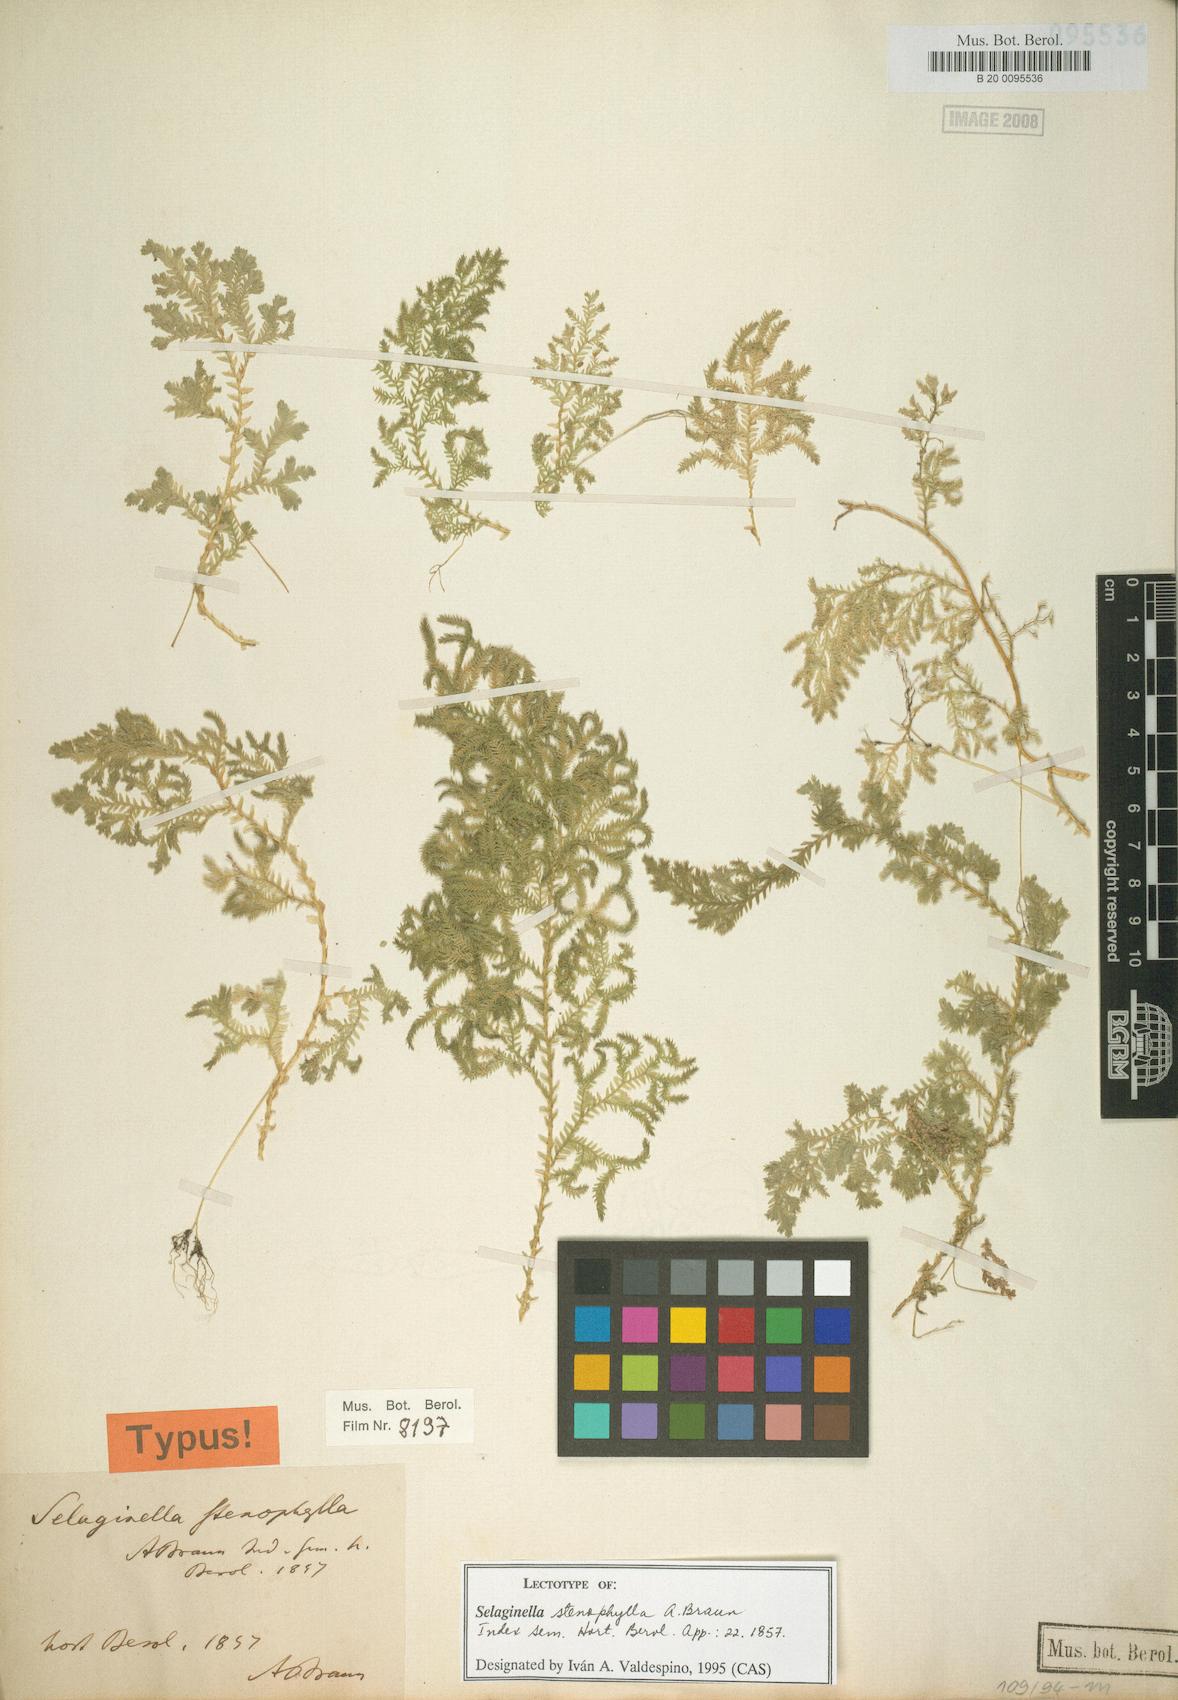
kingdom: Plantae
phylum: Tracheophyta
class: Lycopodiopsida
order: Selaginellales
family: Selaginellaceae
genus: Selaginella
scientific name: Selaginella stenophylla
